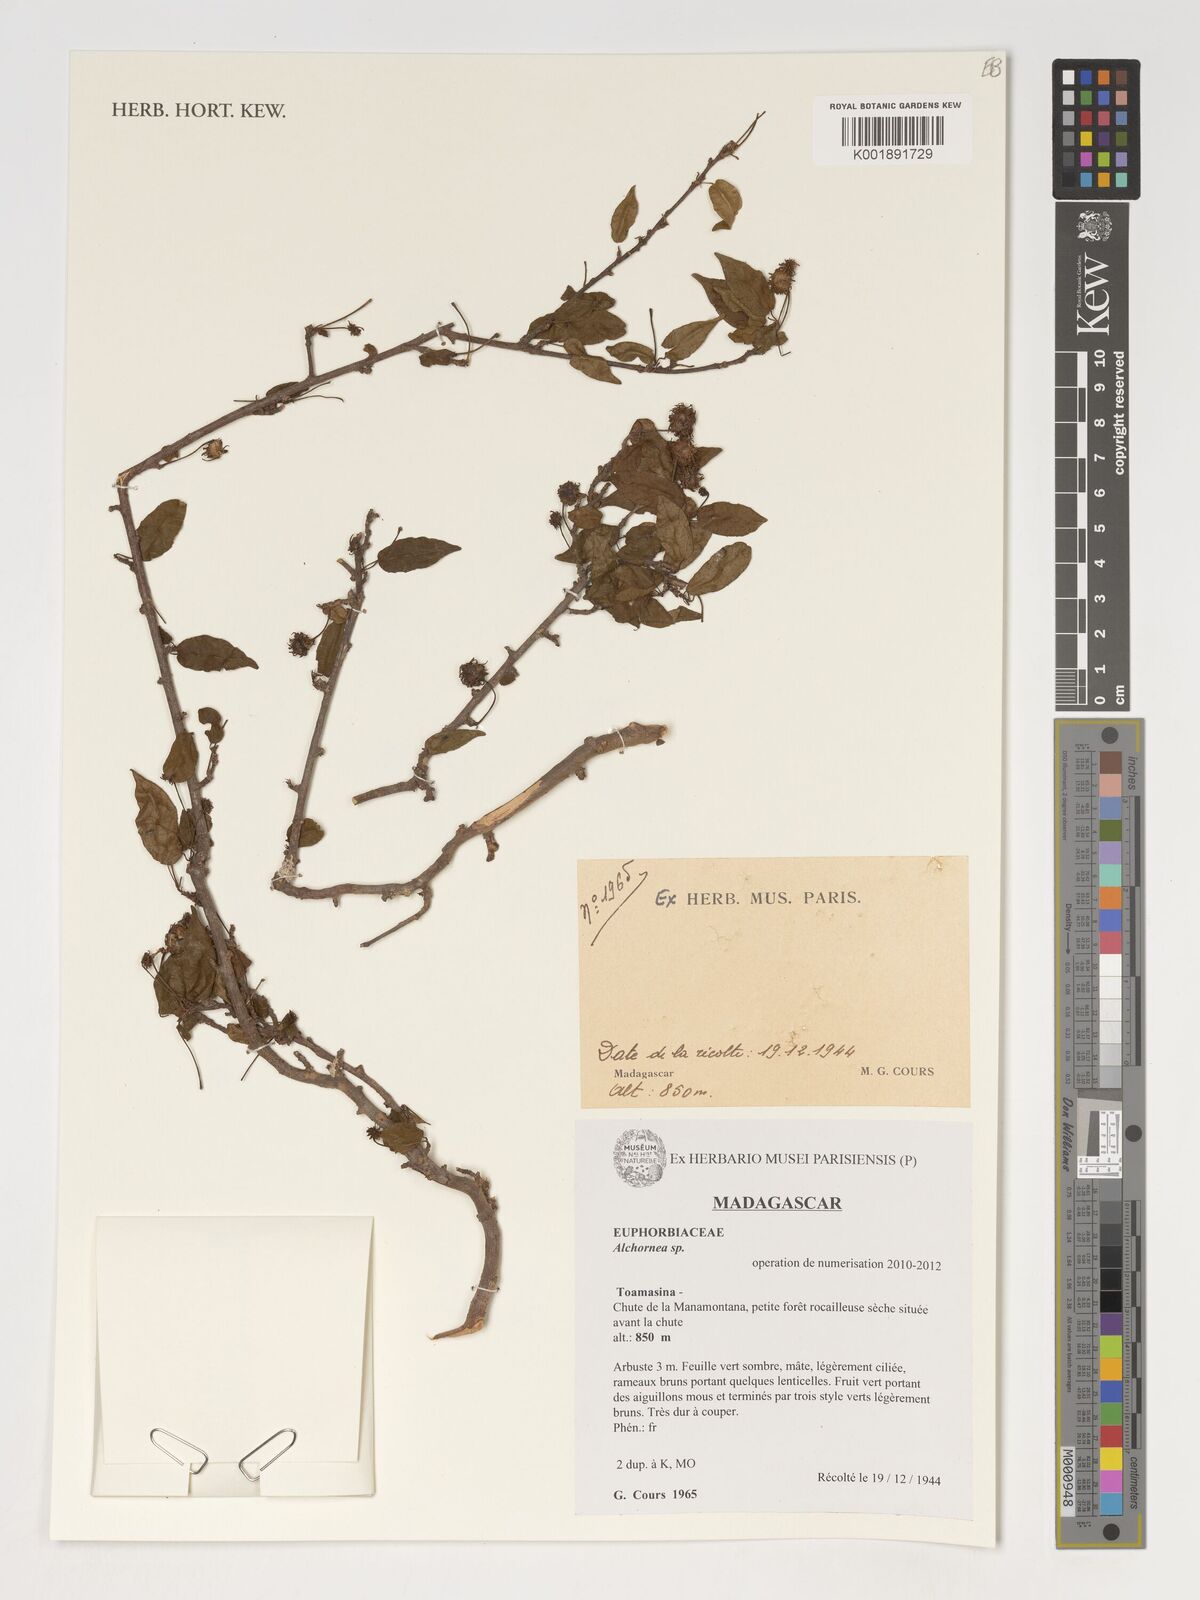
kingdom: Plantae
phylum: Tracheophyta
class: Magnoliopsida
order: Malpighiales
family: Euphorbiaceae
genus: Alchornea
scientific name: Alchornea
